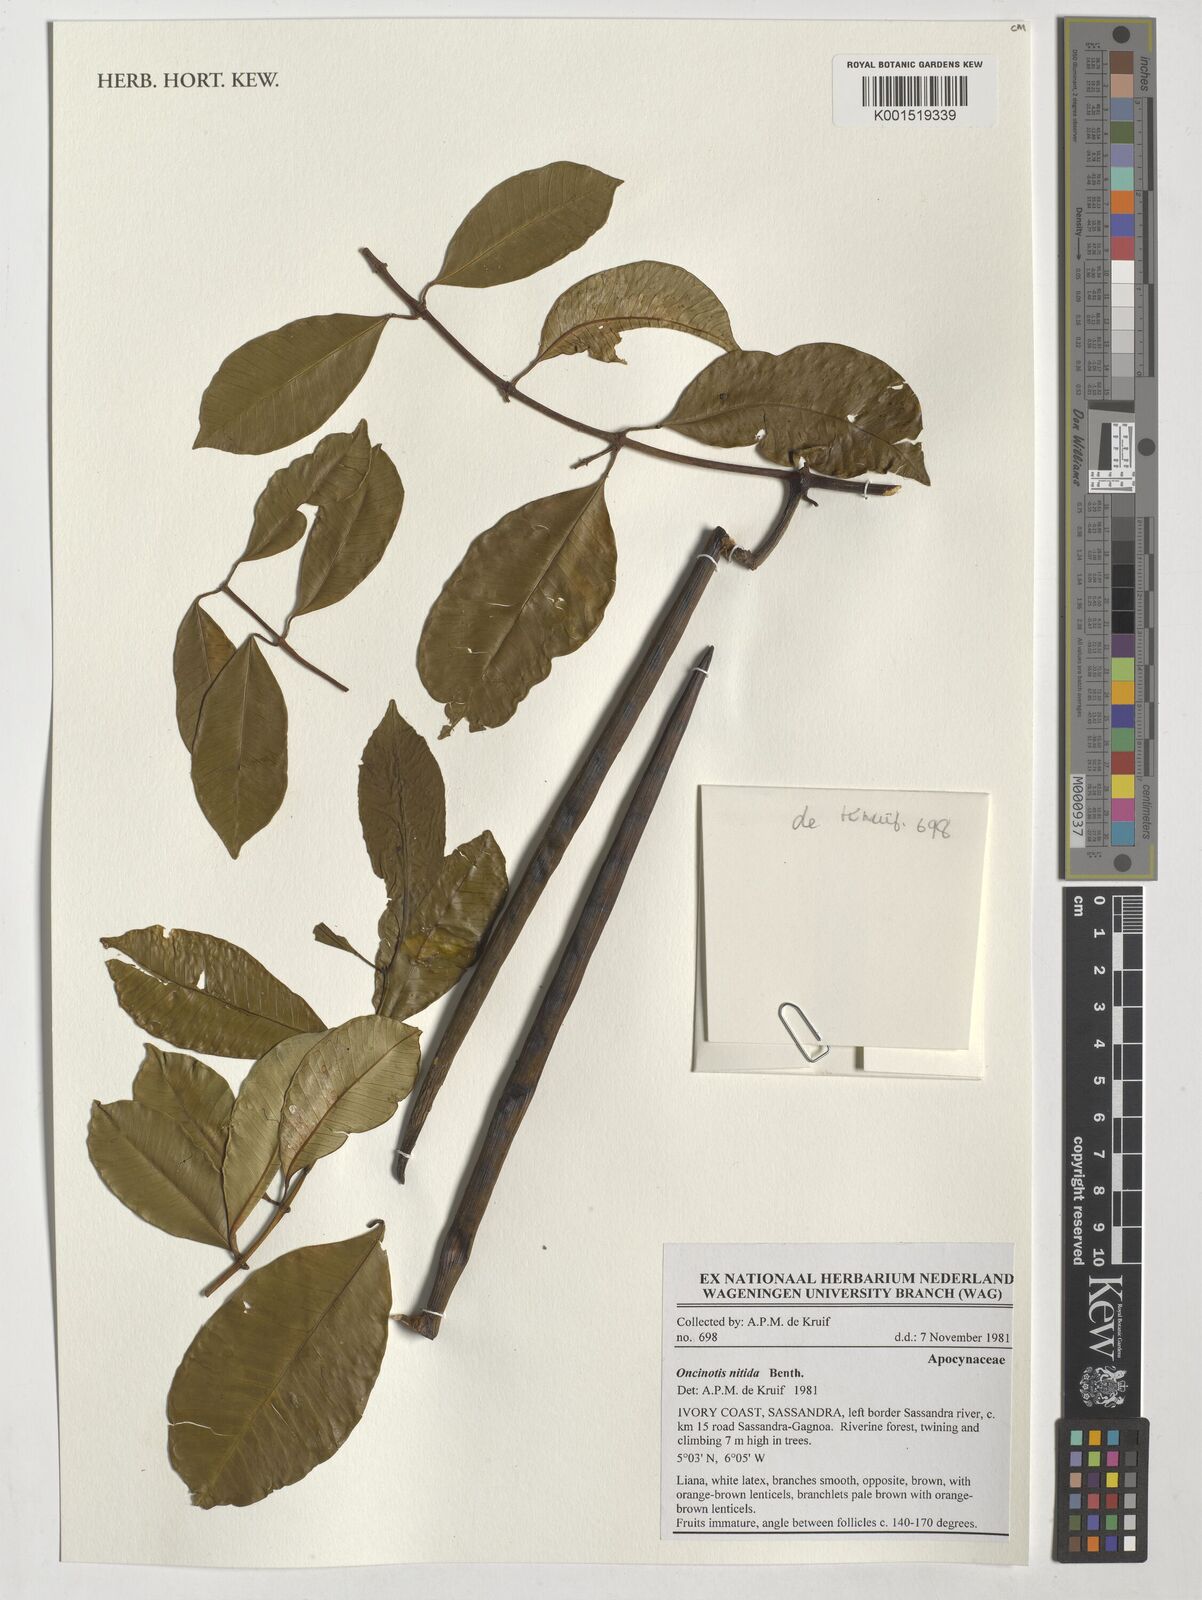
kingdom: Plantae
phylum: Tracheophyta
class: Magnoliopsida
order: Gentianales
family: Apocynaceae
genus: Oncinotis
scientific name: Oncinotis nitida
